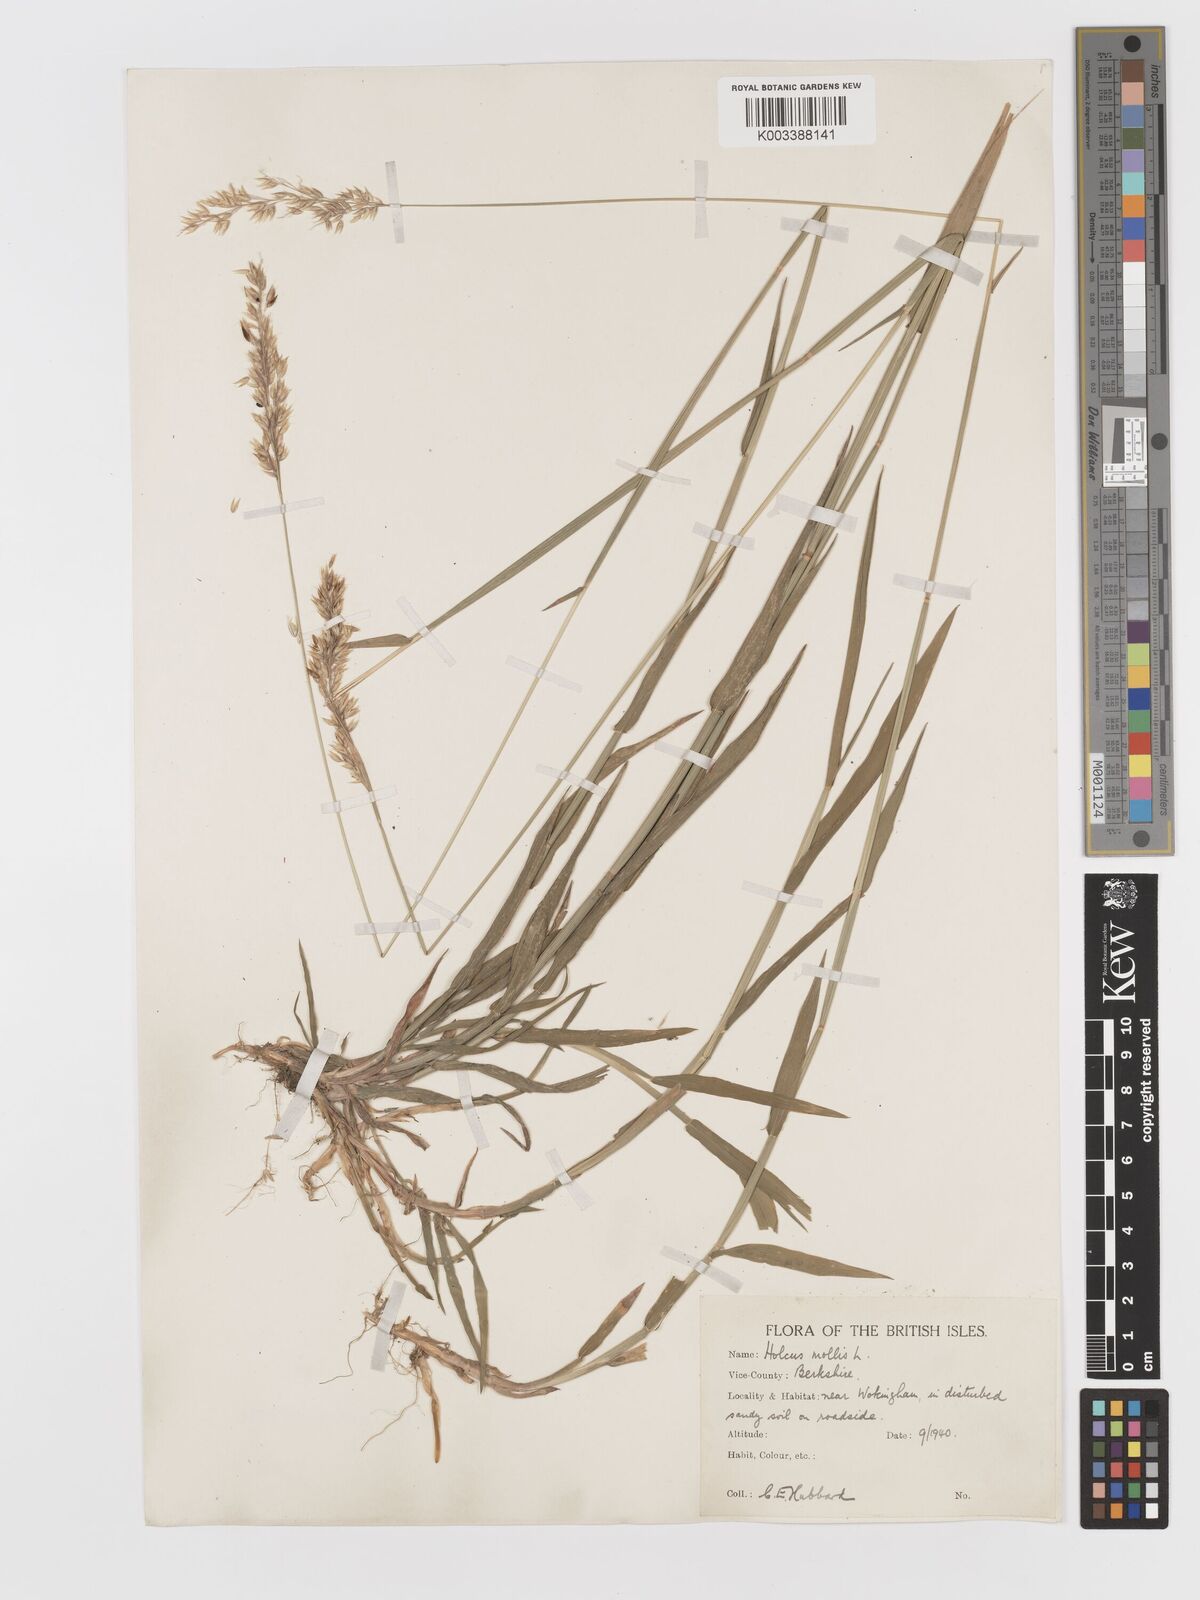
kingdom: Plantae
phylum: Tracheophyta
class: Liliopsida
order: Poales
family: Poaceae
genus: Holcus
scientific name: Holcus mollis
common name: Creeping velvetgrass
